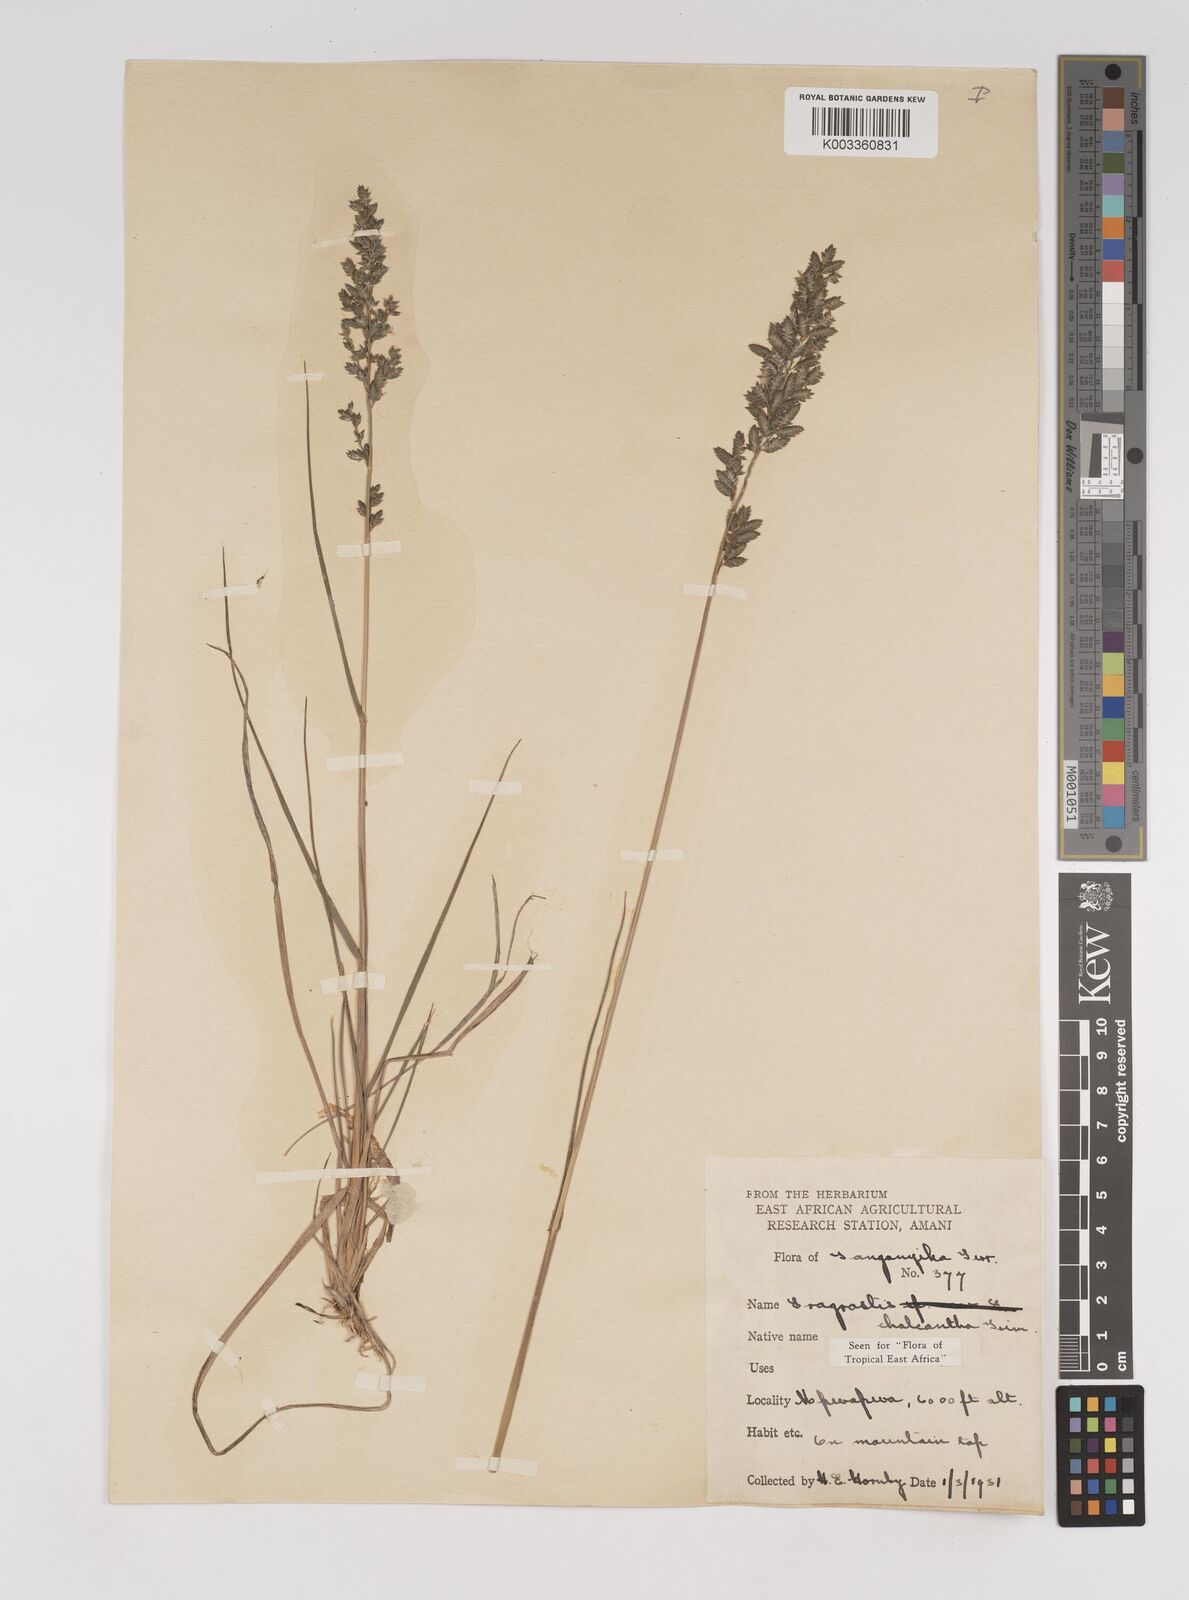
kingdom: Plantae
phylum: Tracheophyta
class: Liliopsida
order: Poales
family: Poaceae
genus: Eragrostis
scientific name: Eragrostis racemosa
